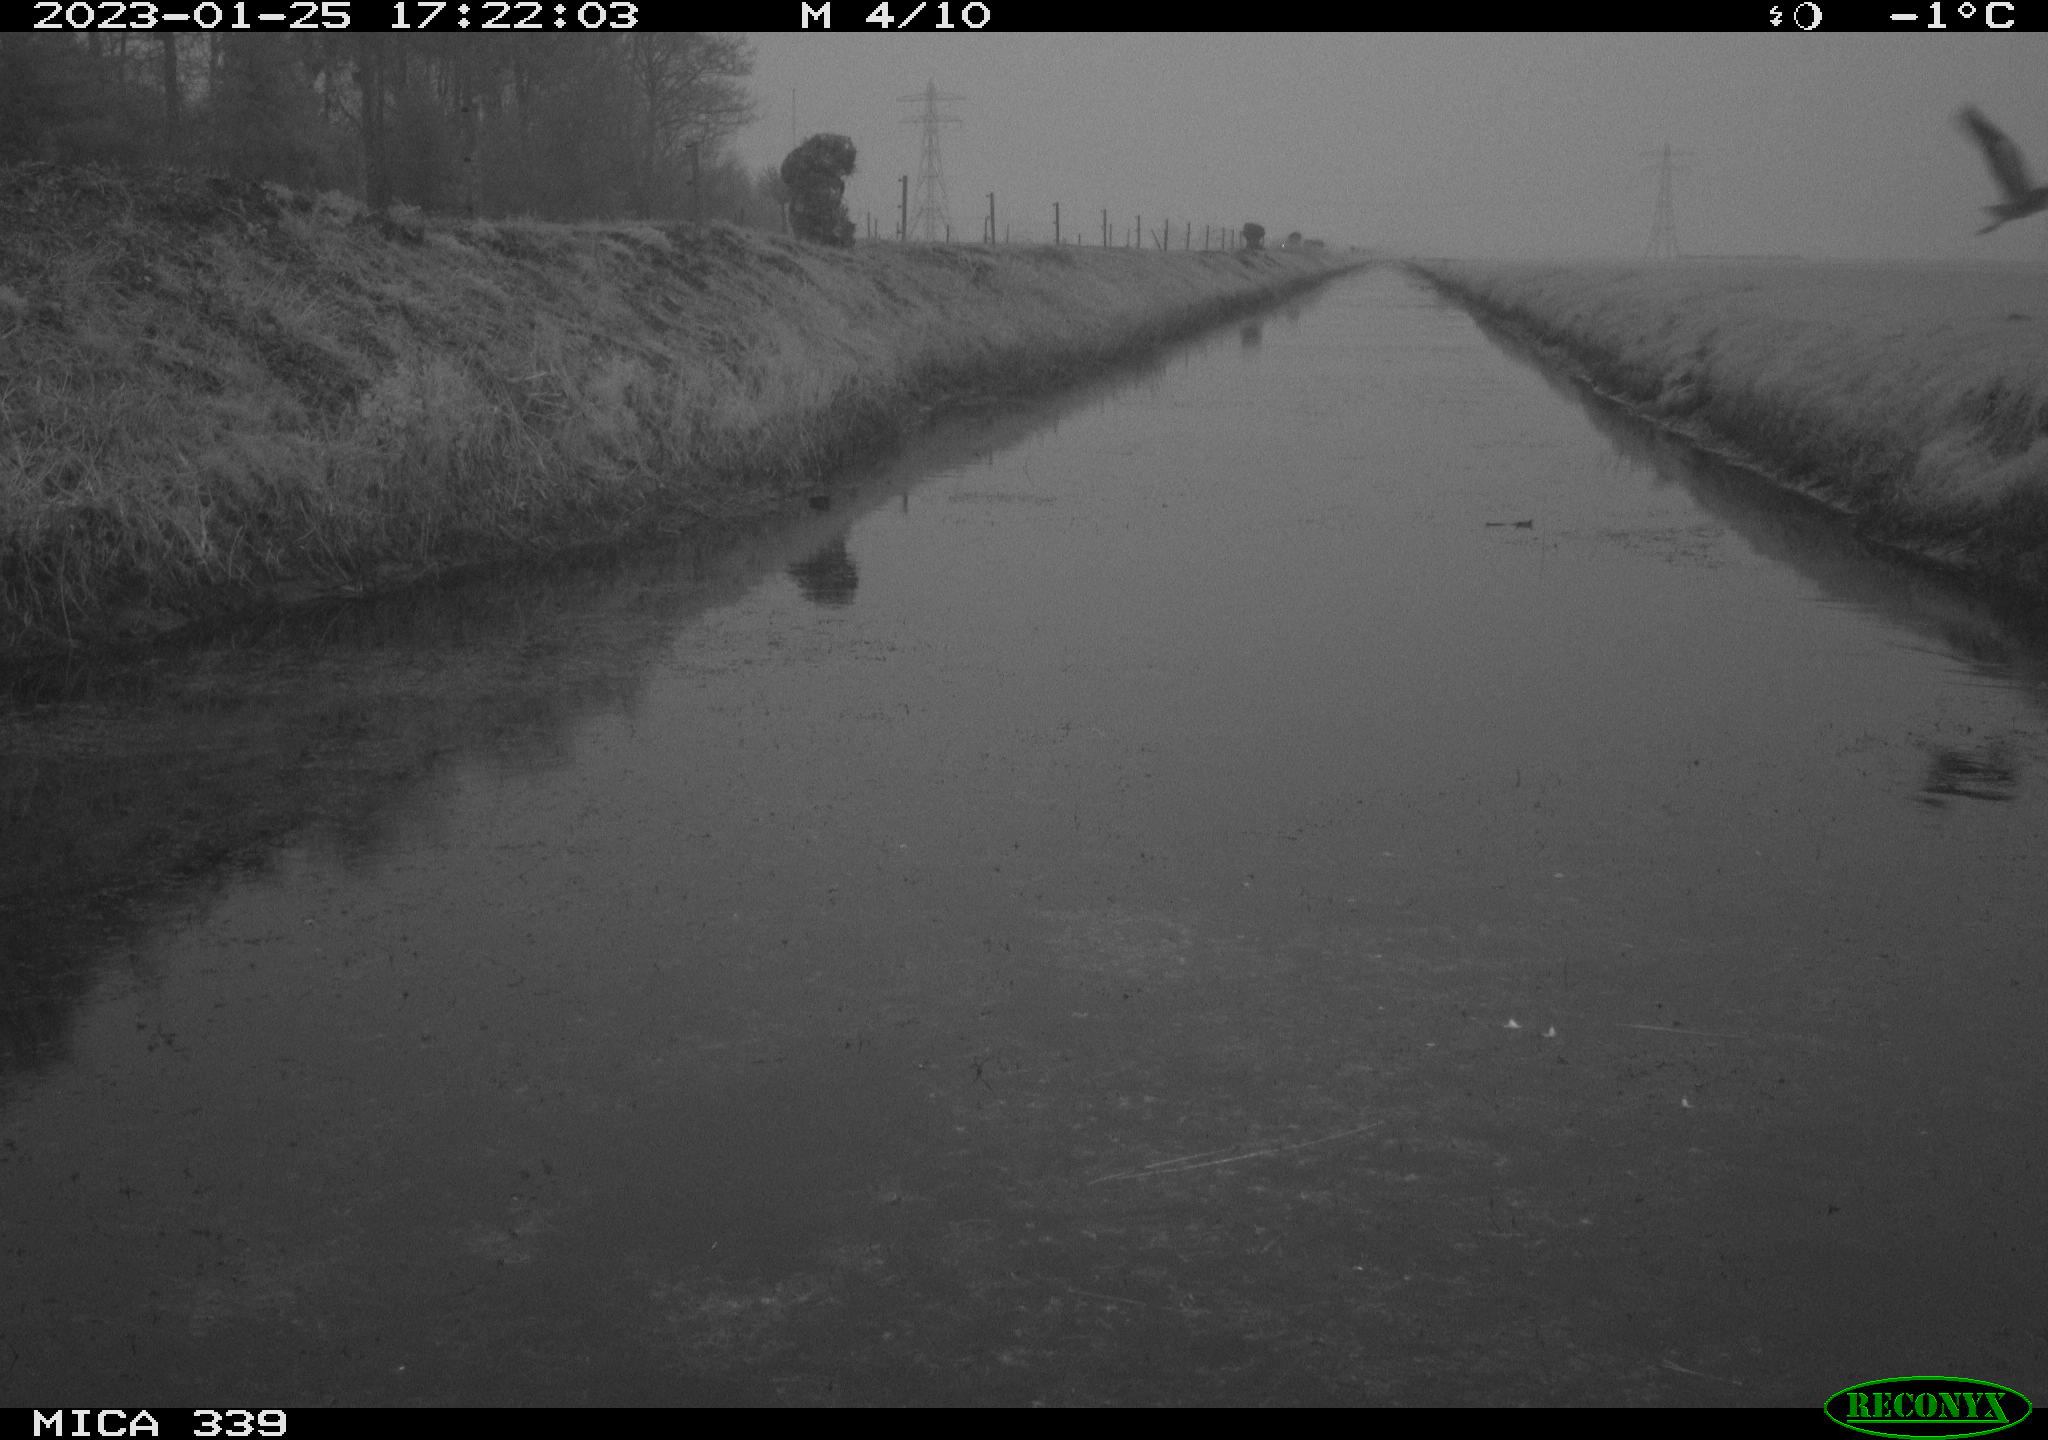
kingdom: Animalia
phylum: Chordata
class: Aves
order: Pelecaniformes
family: Ardeidae
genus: Ardea
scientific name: Ardea cinerea
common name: Grey heron
